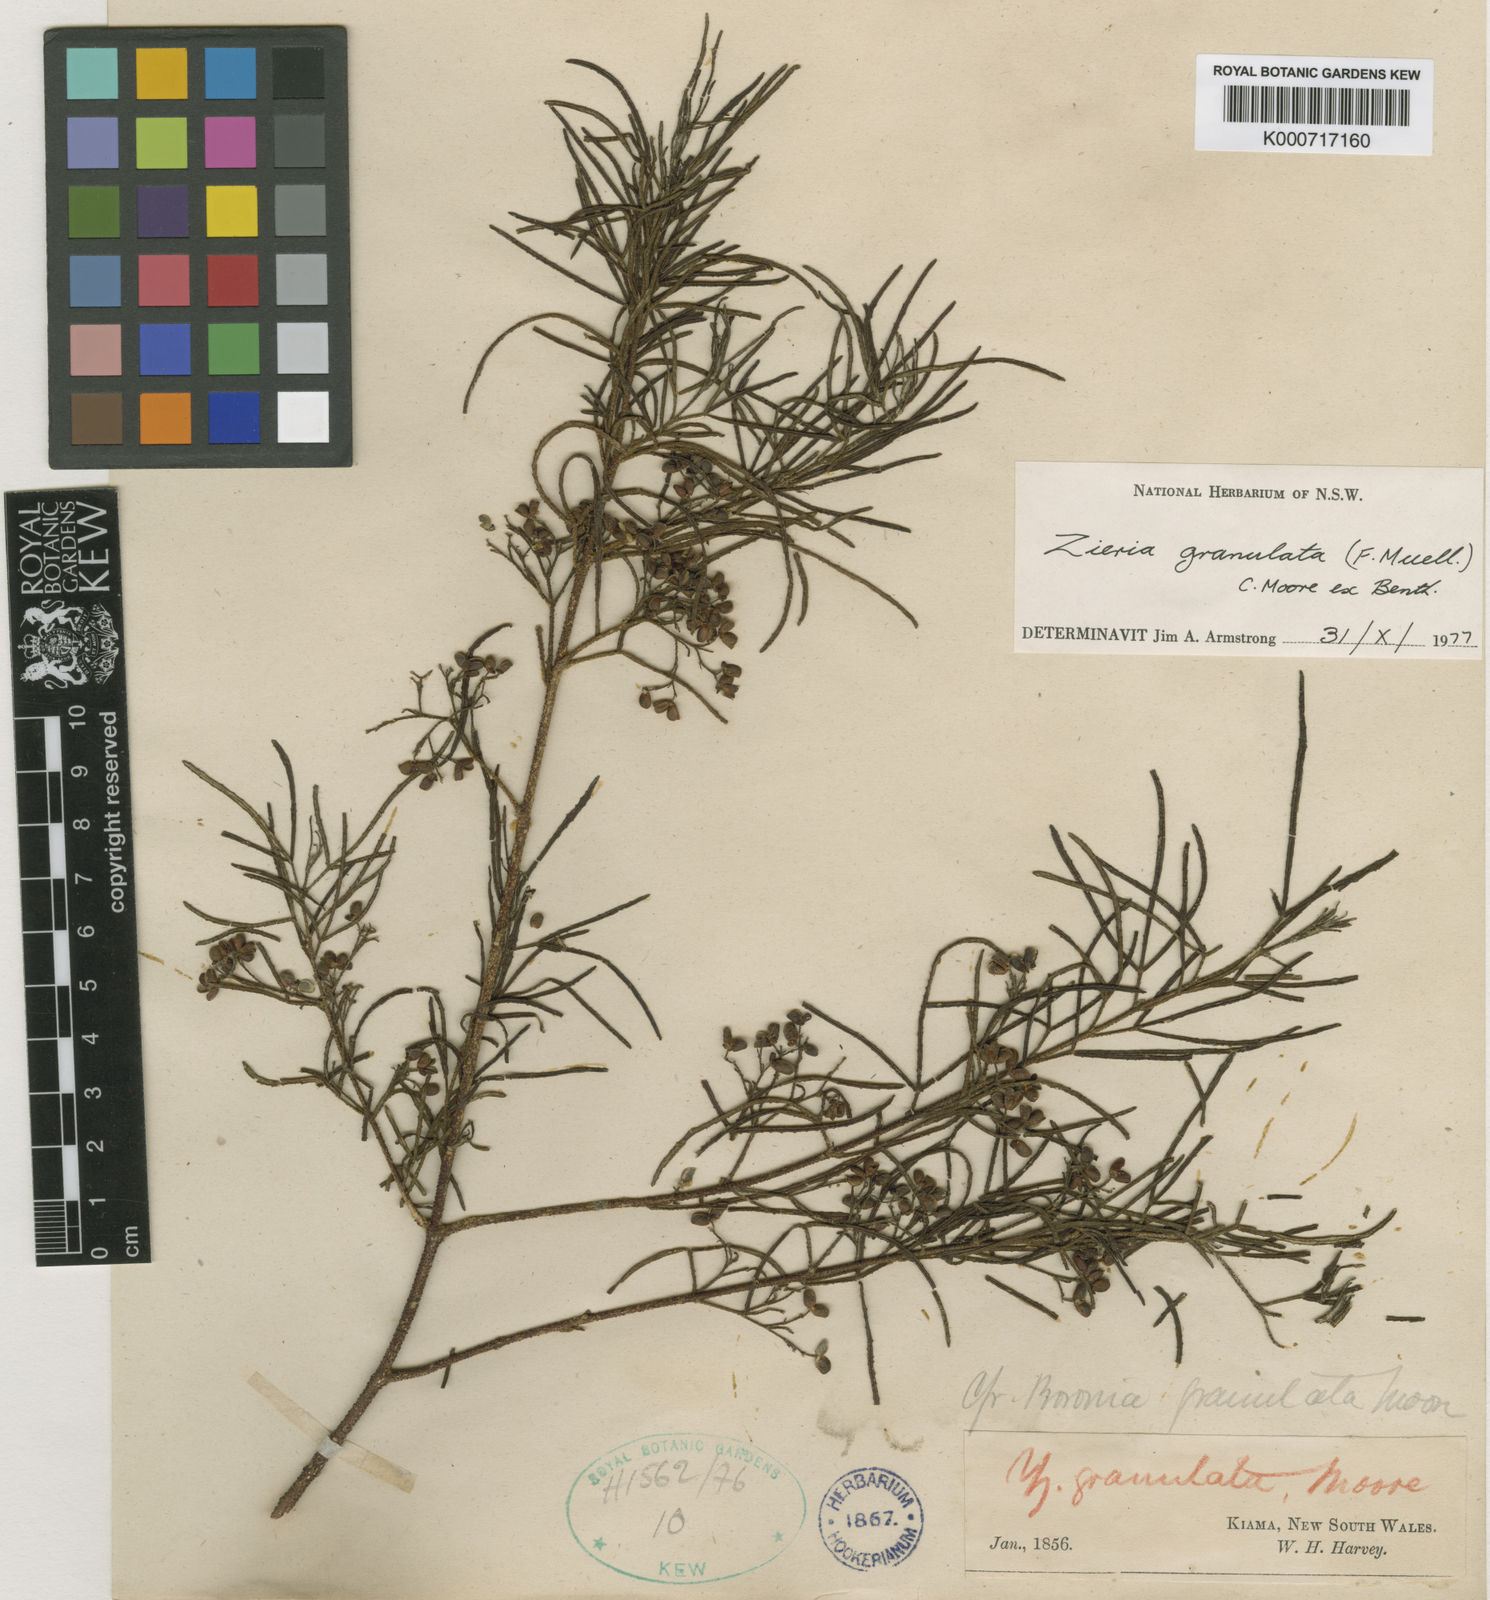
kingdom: Plantae
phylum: Tracheophyta
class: Magnoliopsida
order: Sapindales
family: Rutaceae
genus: Zieria
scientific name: Zieria granulata
